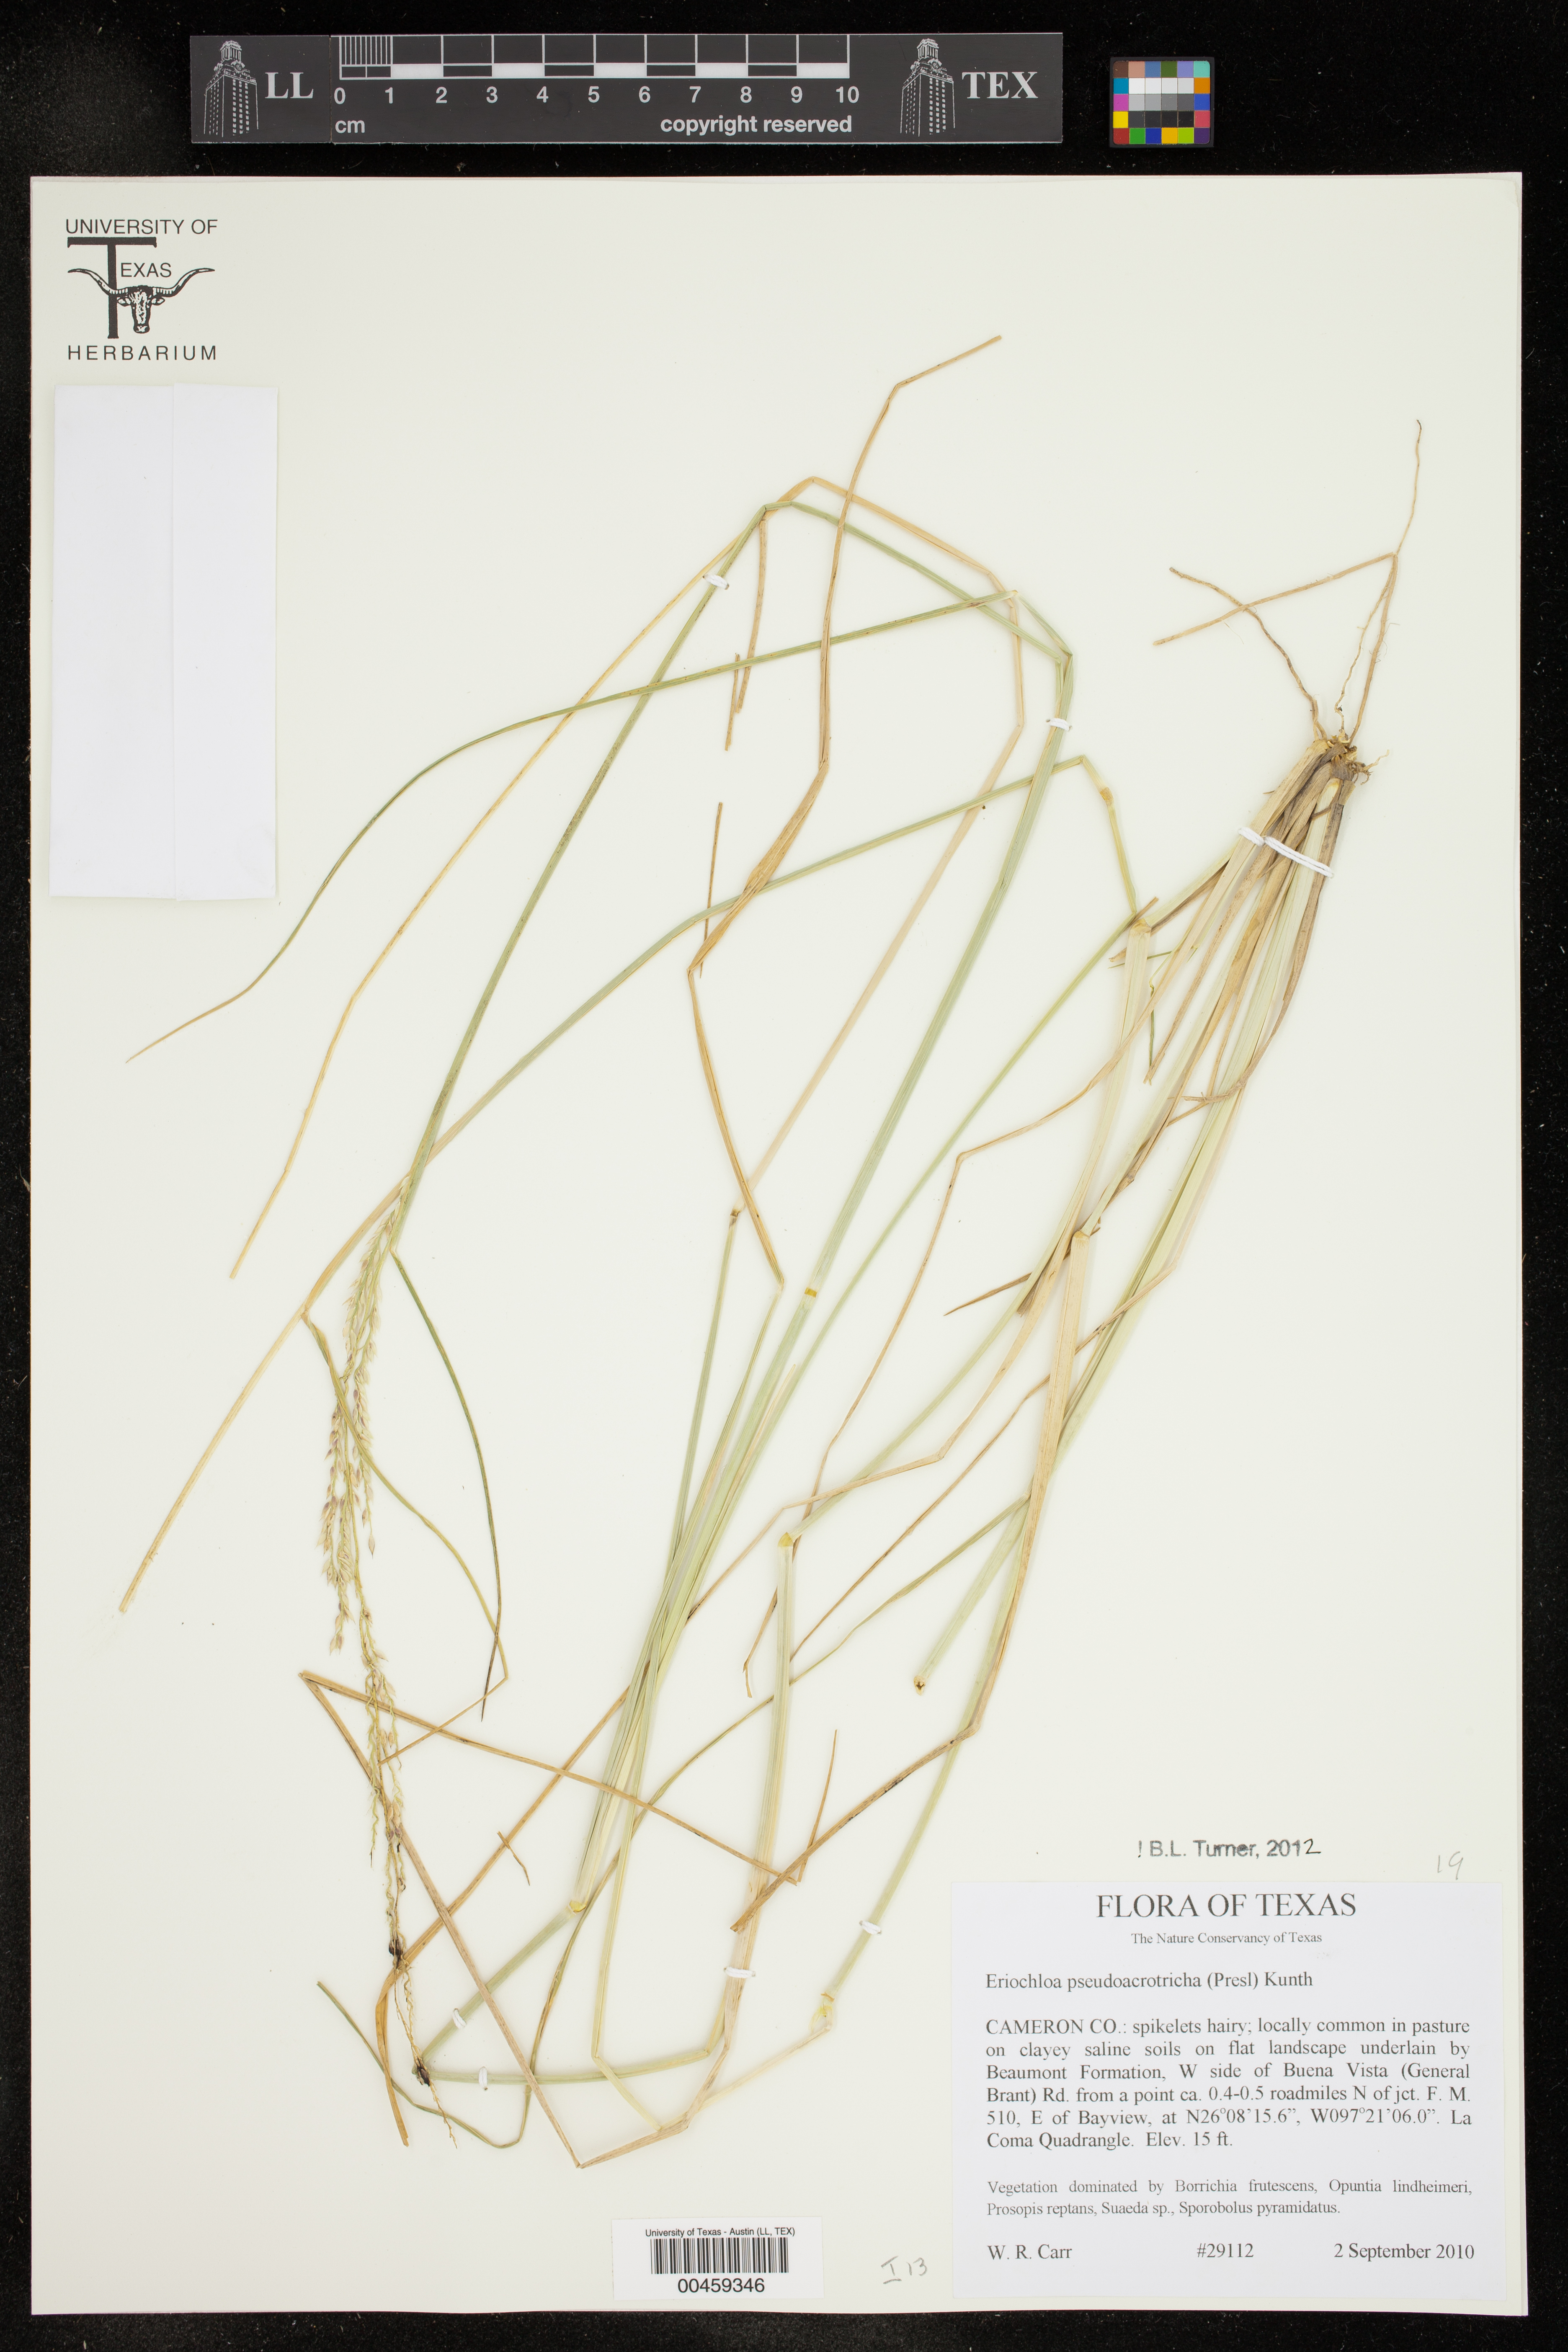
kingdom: Plantae
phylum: Tracheophyta
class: Liliopsida
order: Poales
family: Poaceae
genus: Eriochloa
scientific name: Eriochloa pseudoacrotricha
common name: Perennial cup-grass
